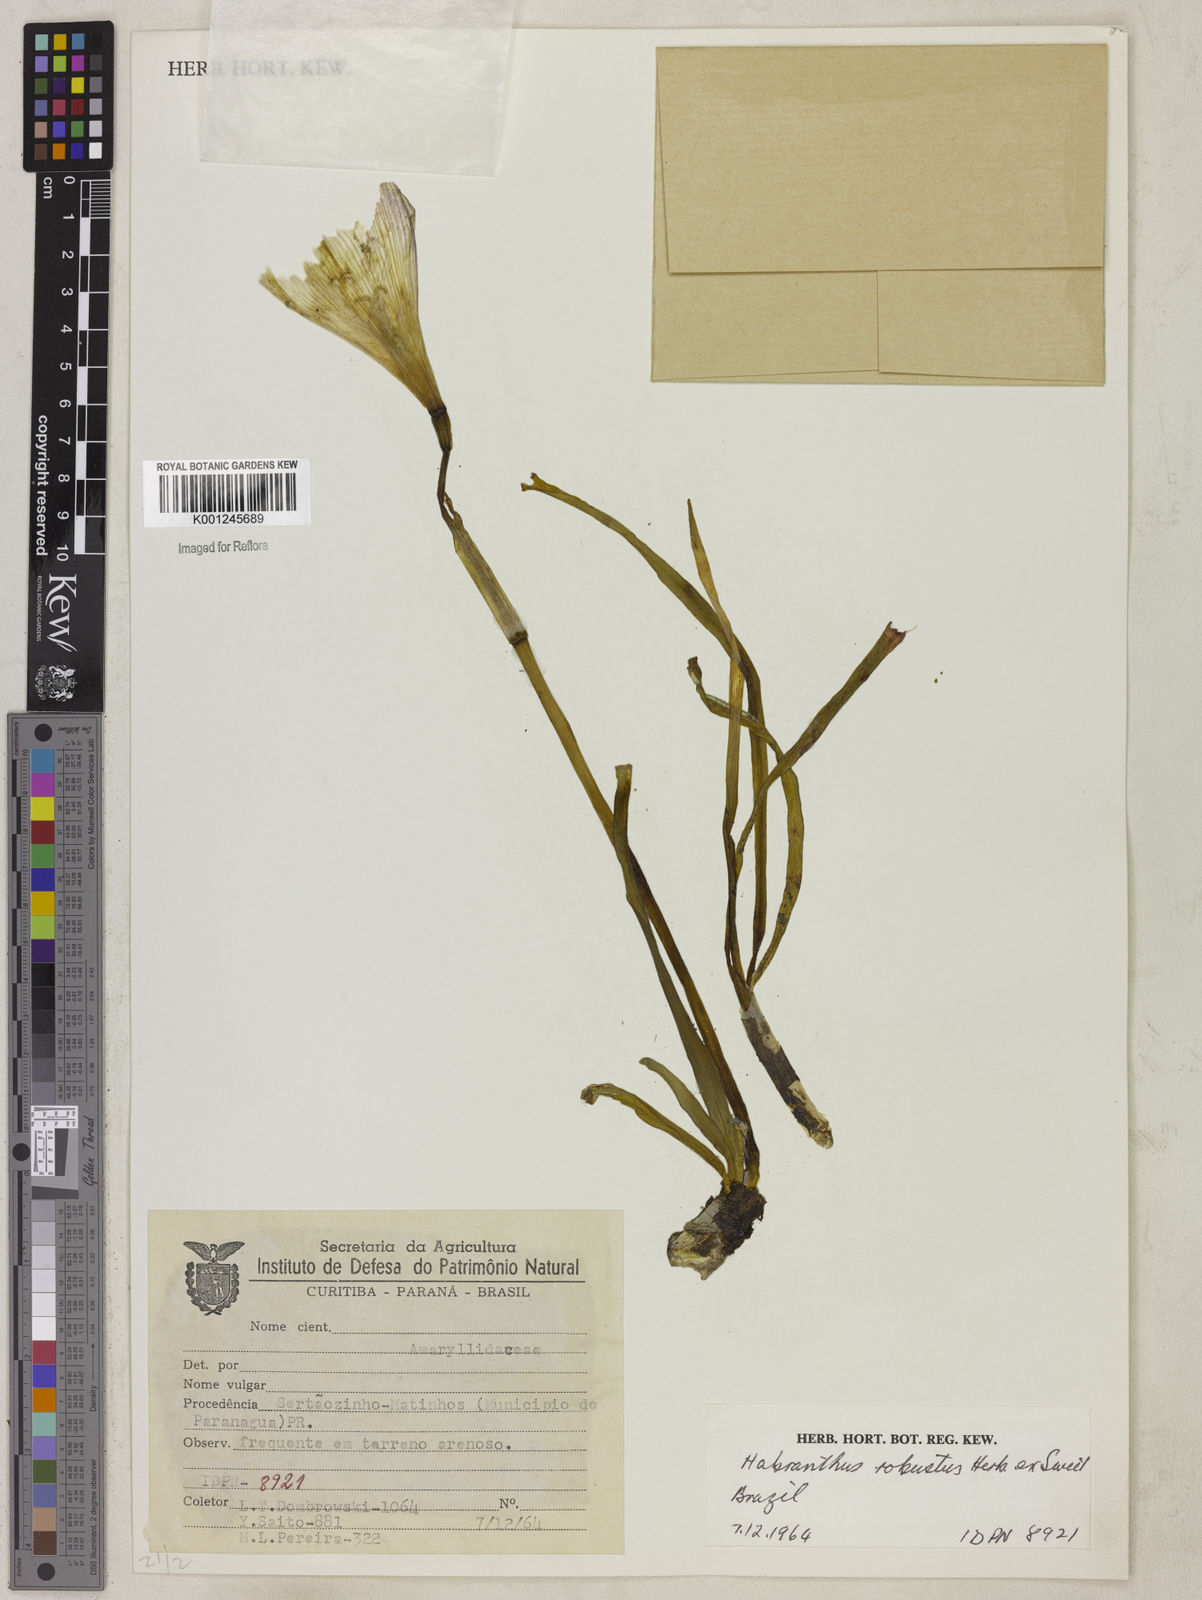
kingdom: Plantae
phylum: Tracheophyta
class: Liliopsida
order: Asparagales
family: Amaryllidaceae
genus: Zephyranthes
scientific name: Zephyranthes robusta
